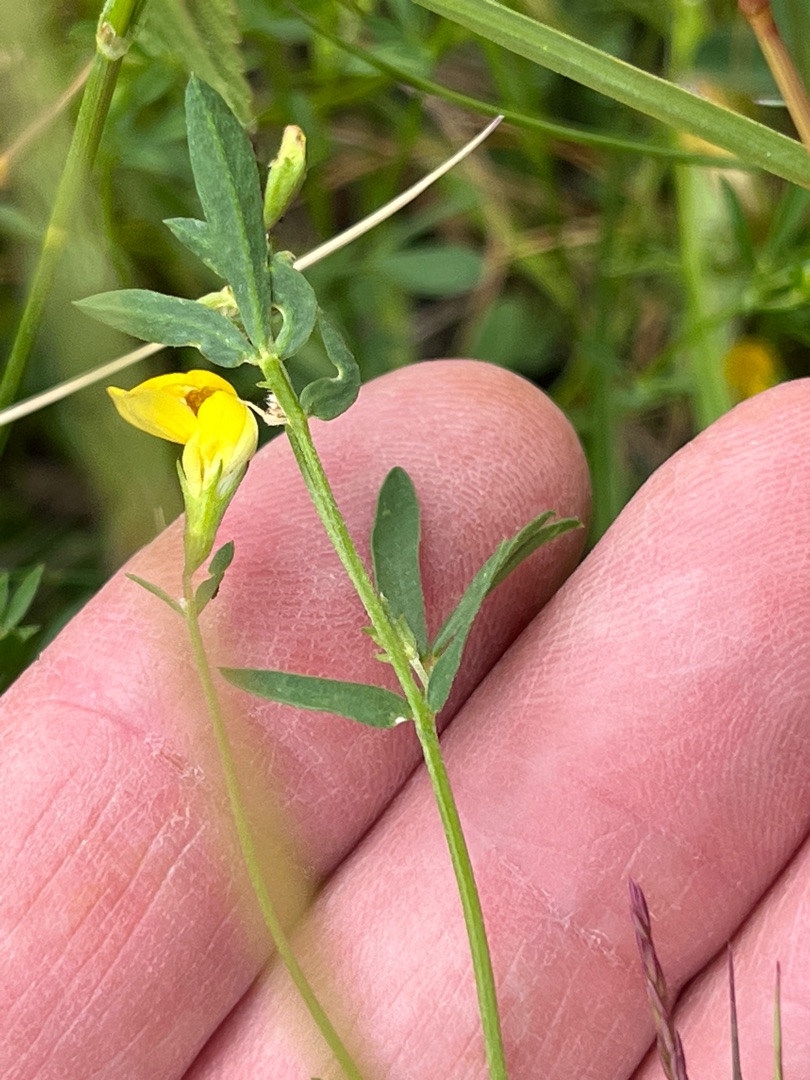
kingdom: Plantae
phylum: Tracheophyta
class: Magnoliopsida
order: Fabales
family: Fabaceae
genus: Lotus
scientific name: Lotus tenuis
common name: Smalbladet kællingetand
